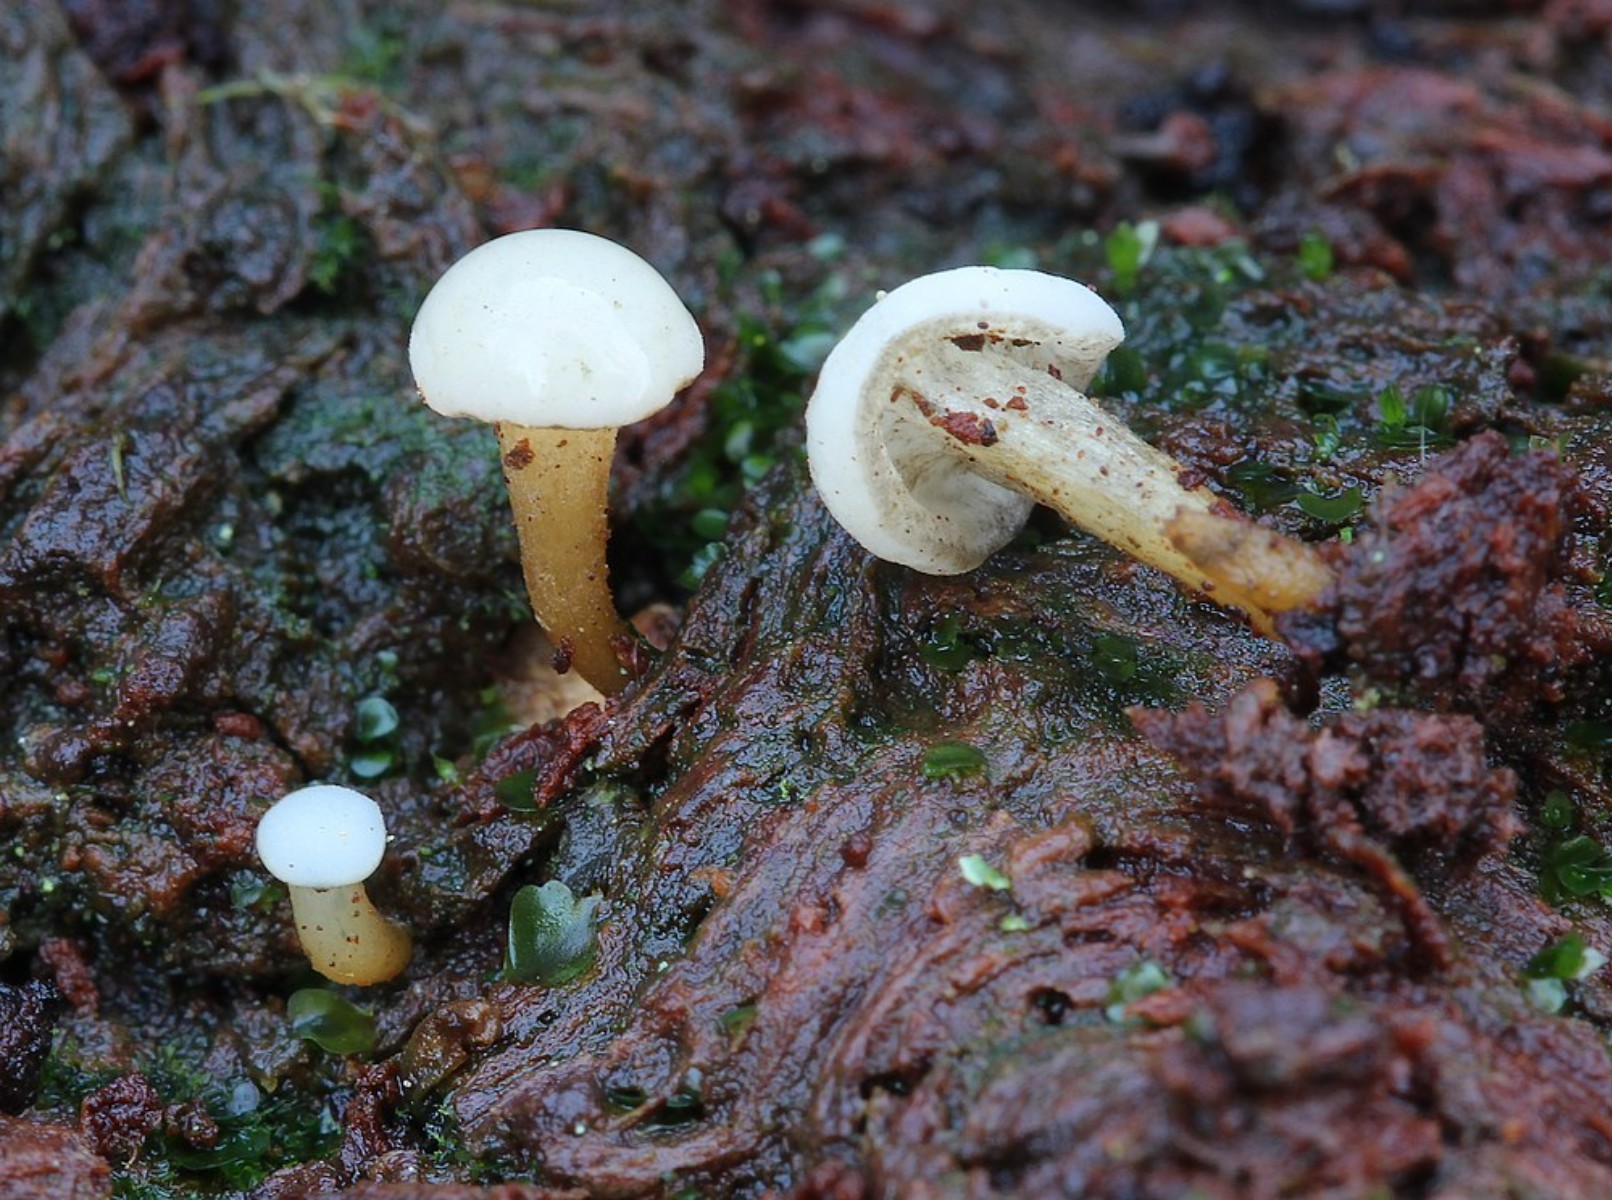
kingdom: Fungi
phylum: Ascomycota
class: Leotiomycetes
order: Helotiales
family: Tricladiaceae
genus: Cudoniella
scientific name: Cudoniella acicularis
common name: ege-dyndskive
